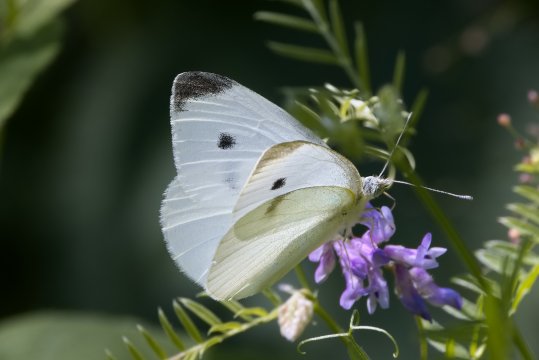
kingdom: Animalia
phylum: Arthropoda
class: Insecta
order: Lepidoptera
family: Pieridae
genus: Pieris
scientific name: Pieris rapae
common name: Cabbage White
